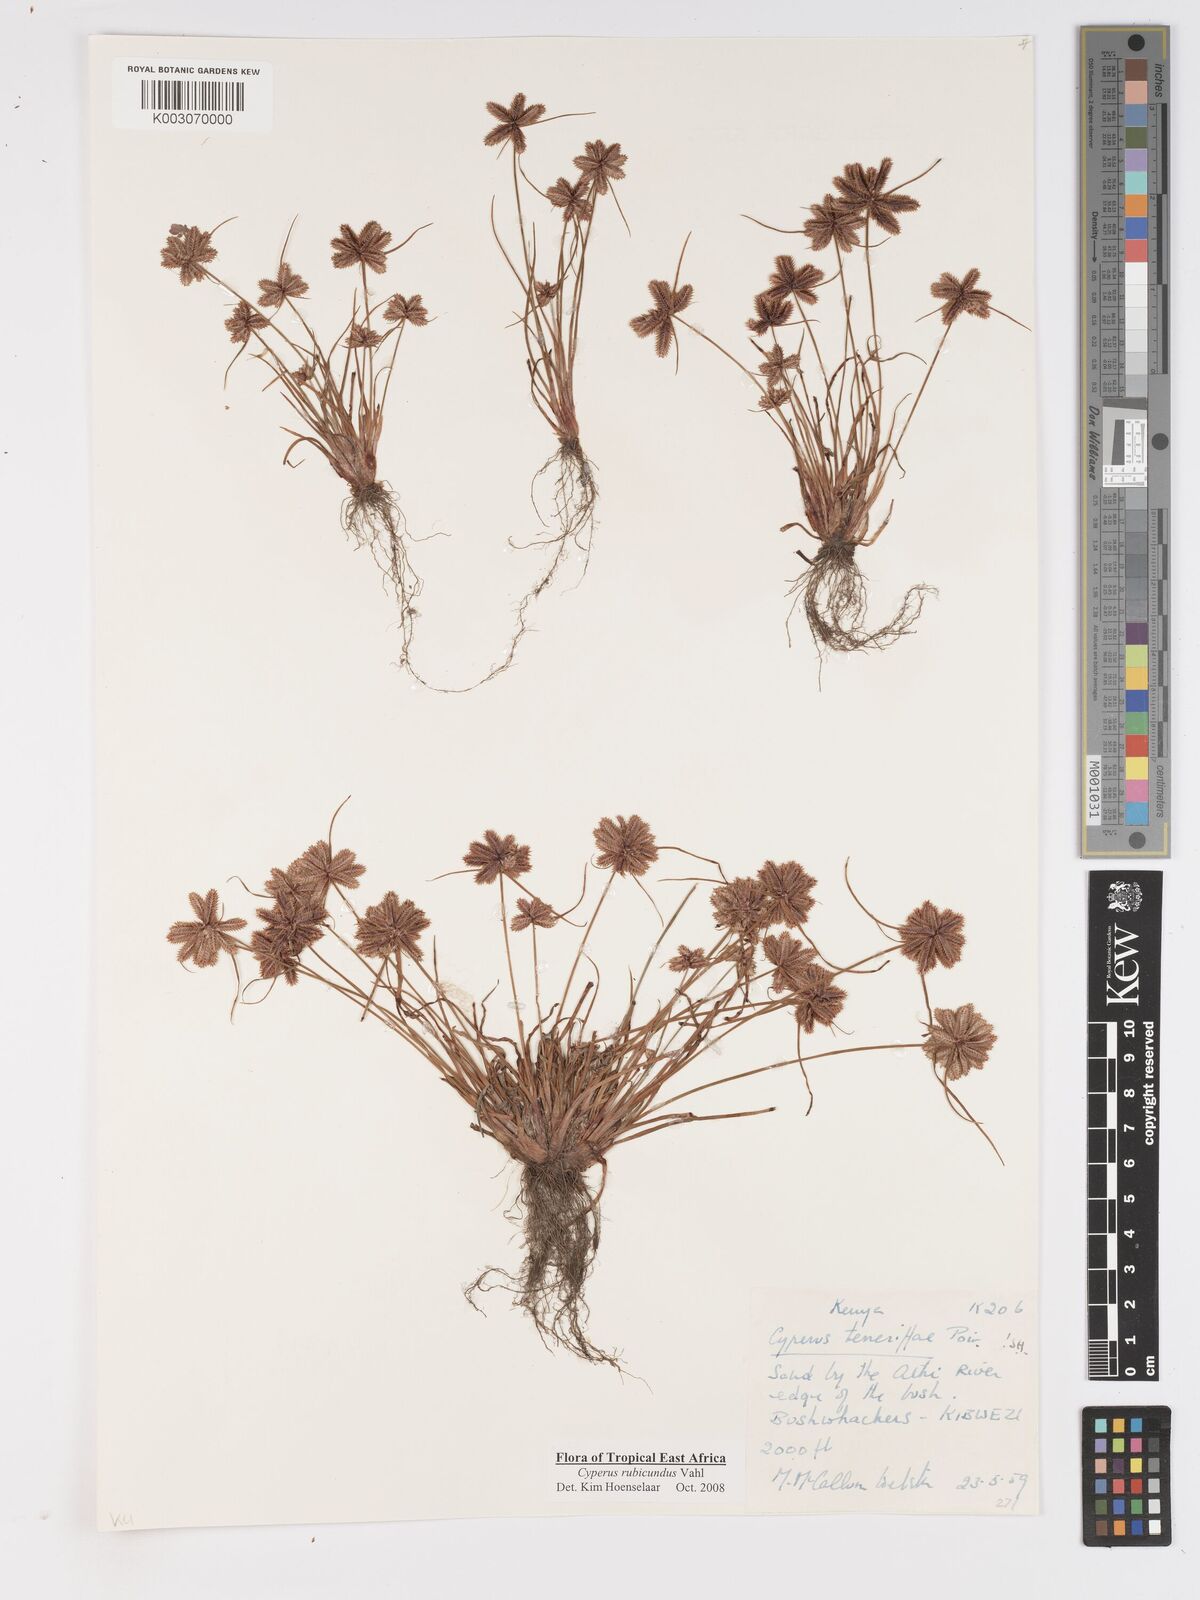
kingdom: Plantae
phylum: Tracheophyta
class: Liliopsida
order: Poales
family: Cyperaceae
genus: Cyperus
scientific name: Cyperus rubicundus
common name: Coco-grass
